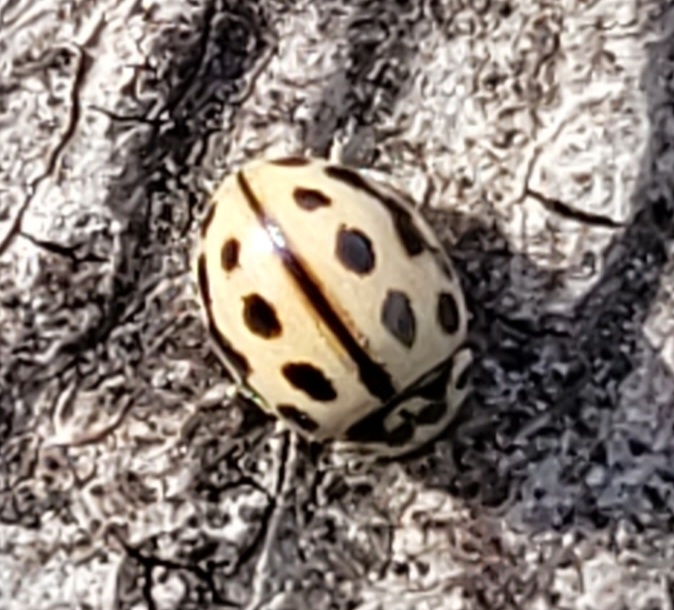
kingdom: Animalia
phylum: Arthropoda
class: Insecta
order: Coleoptera
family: Coccinellidae
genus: Tytthaspis
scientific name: Tytthaspis sedecimpunctata
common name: Sekstenprikket mariehøne
